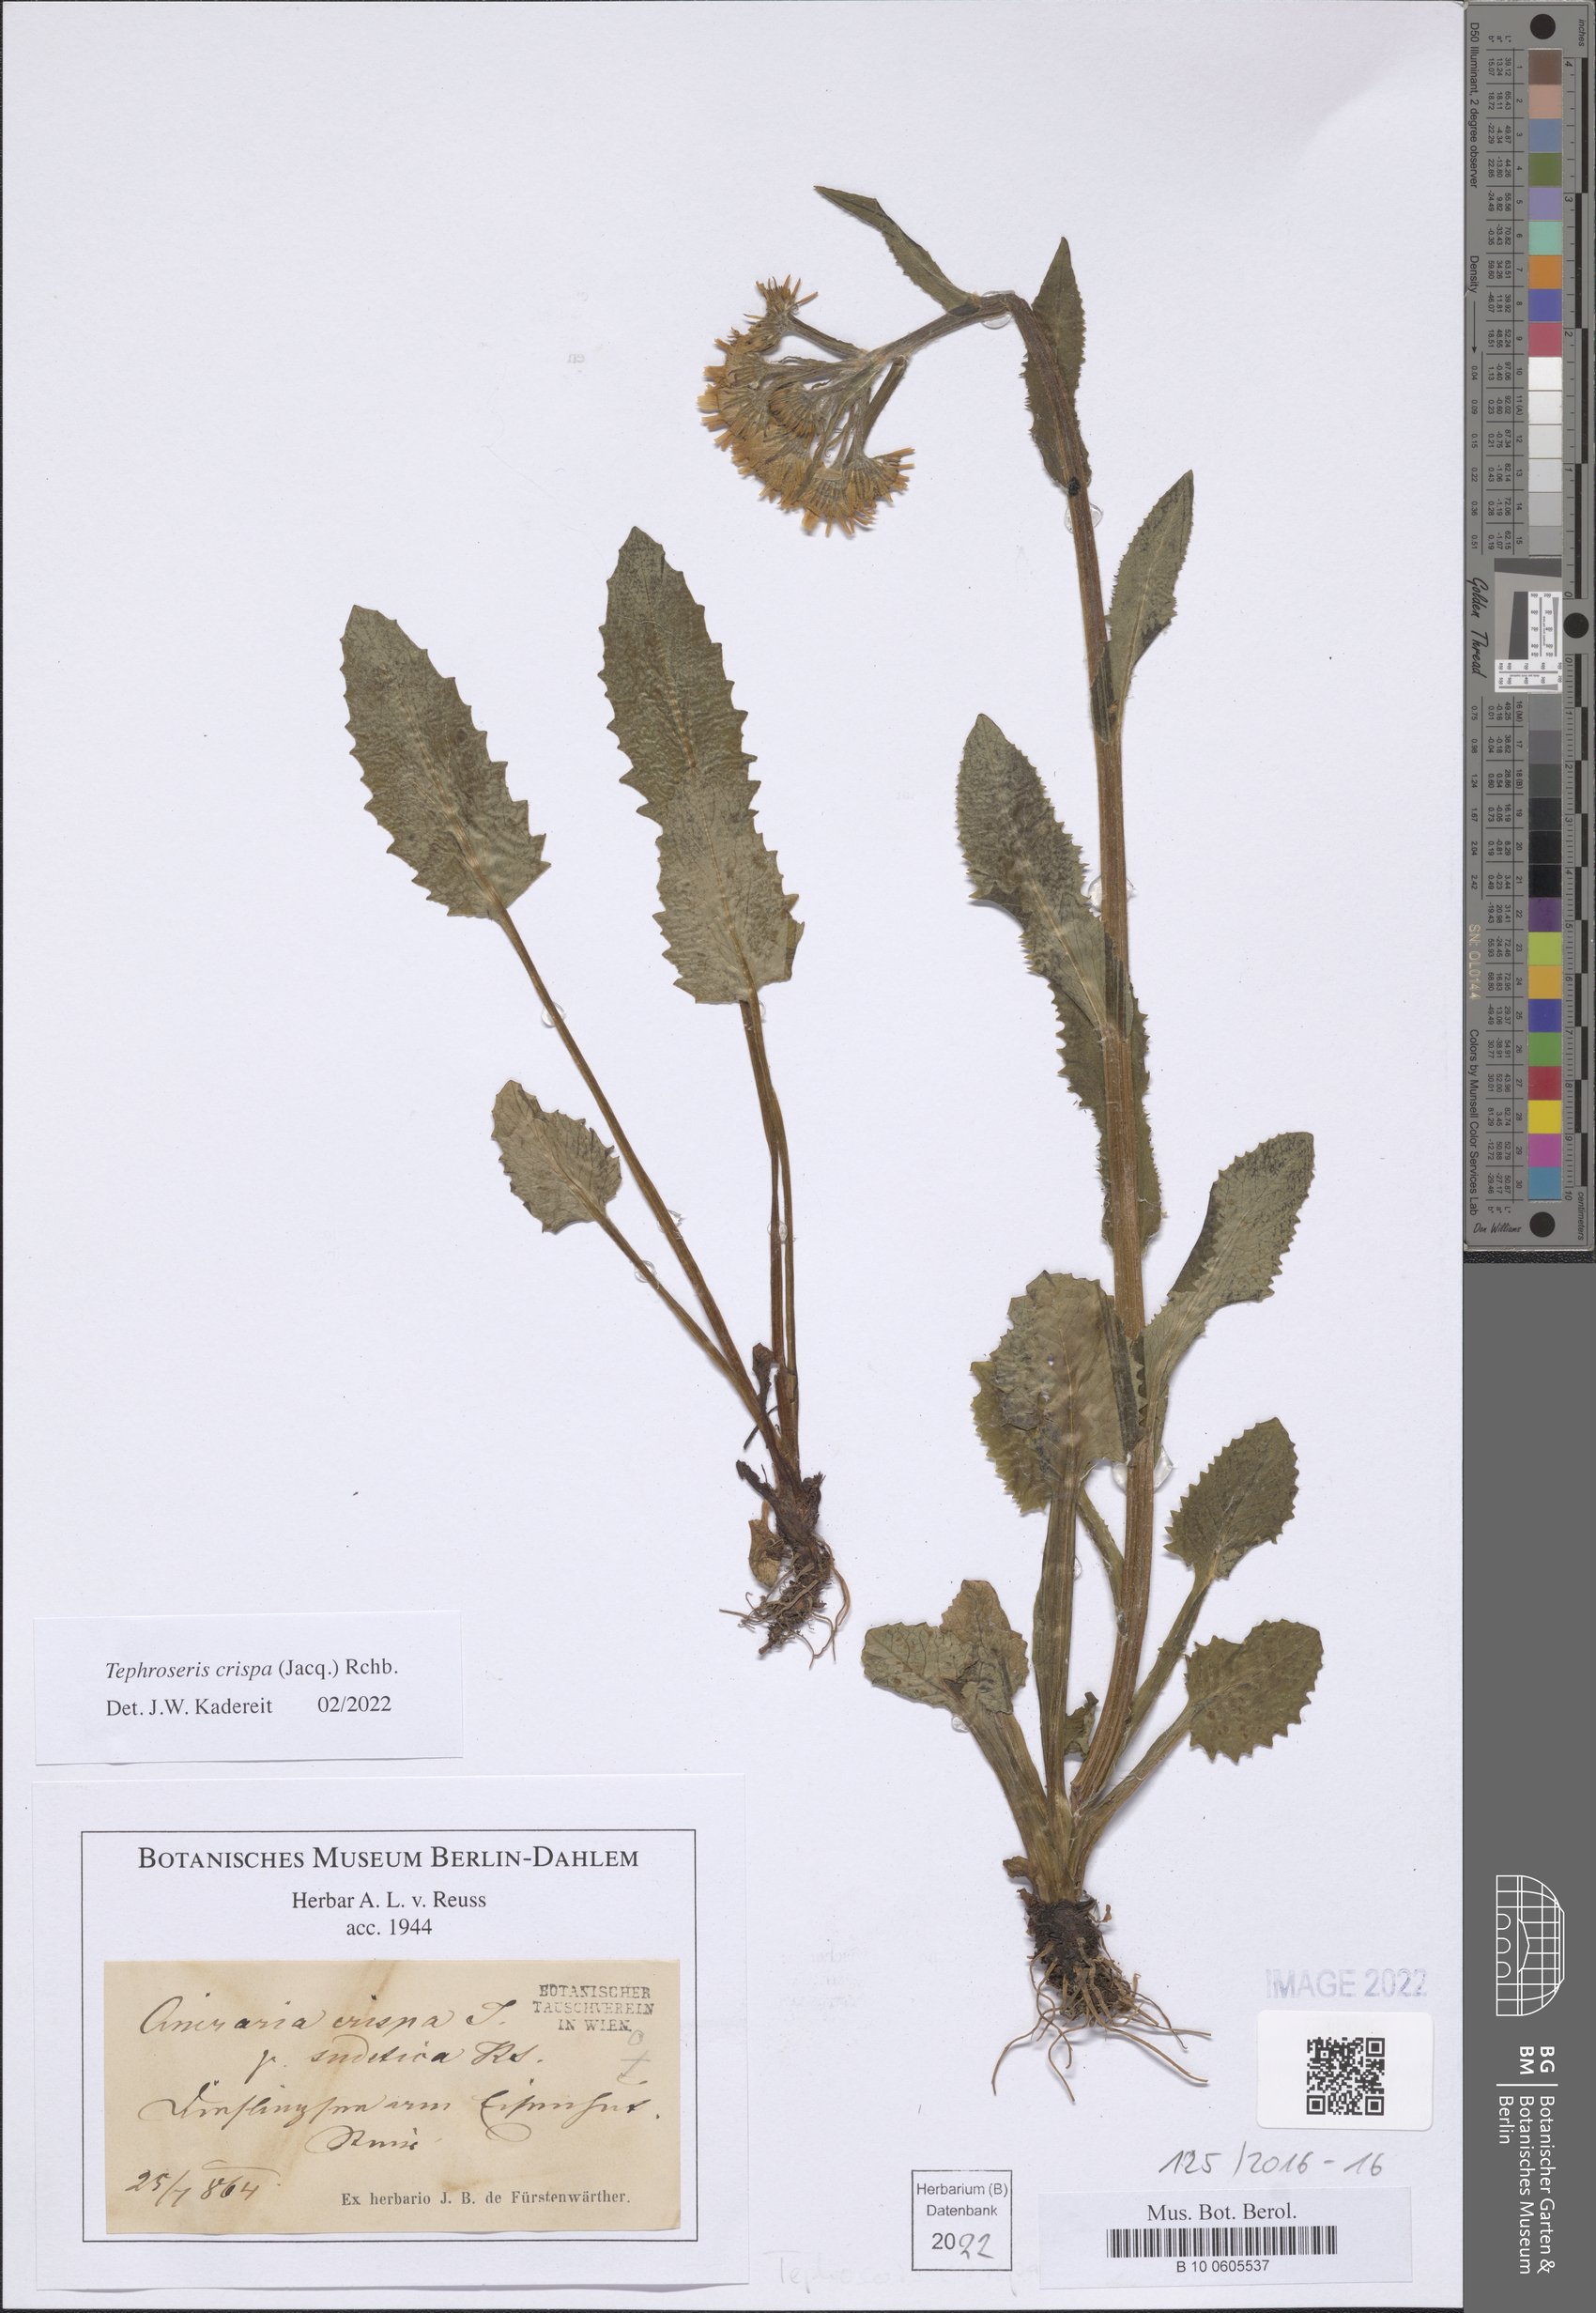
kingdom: Plantae
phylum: Tracheophyta
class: Magnoliopsida
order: Asterales
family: Asteraceae
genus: Tephroseris
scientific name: Tephroseris crispa
